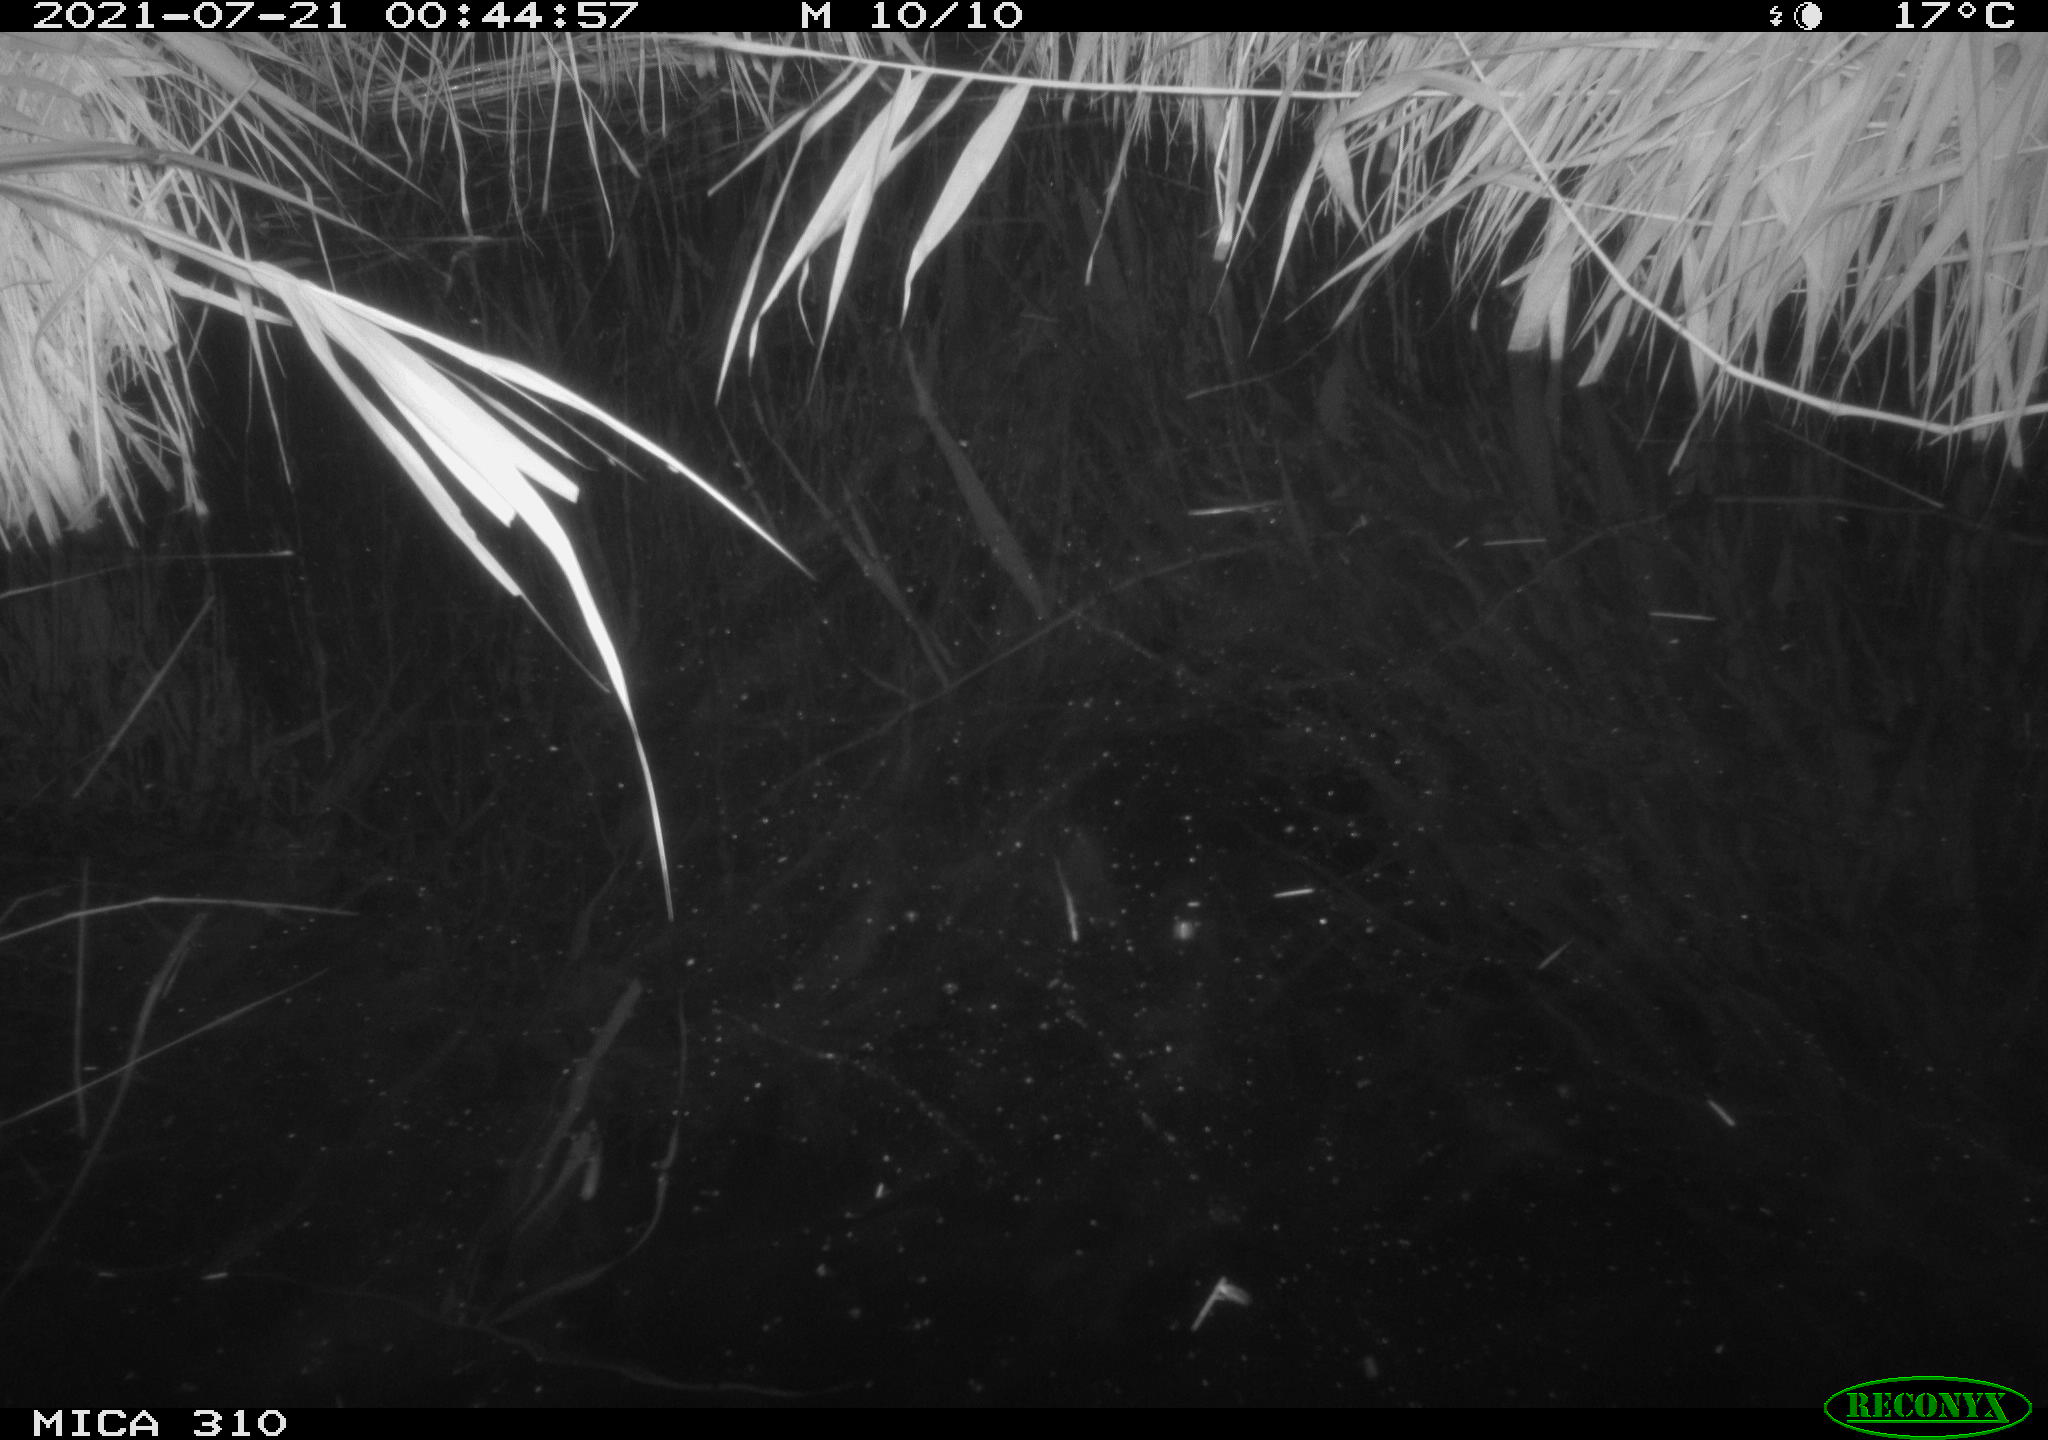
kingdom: Animalia
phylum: Chordata
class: Aves
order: Anseriformes
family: Anatidae
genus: Anas
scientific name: Anas platyrhynchos
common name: Mallard
